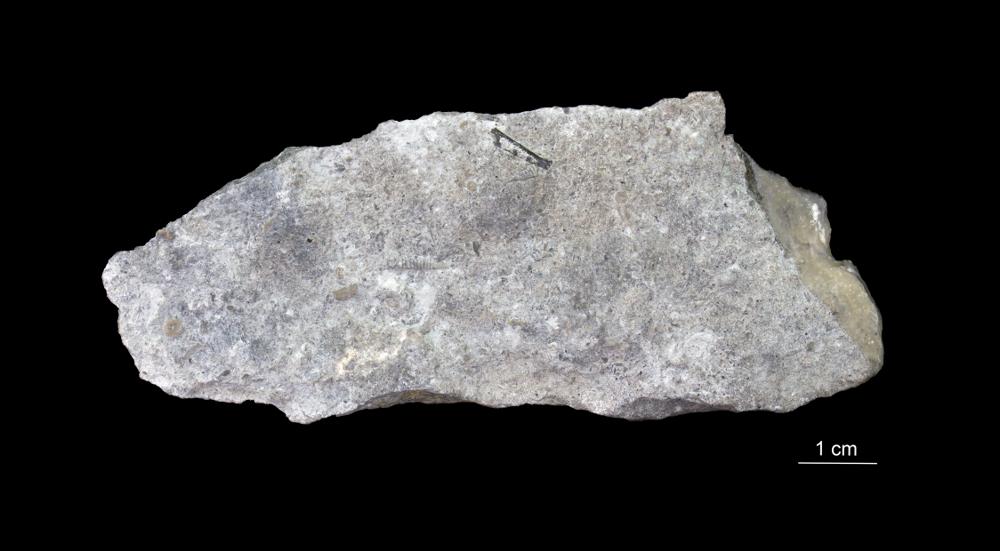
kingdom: Animalia
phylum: Mollusca
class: Cricoconarida
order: Tentaculitida
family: Tentaculitidae
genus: Tentaculites
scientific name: Tentaculites
